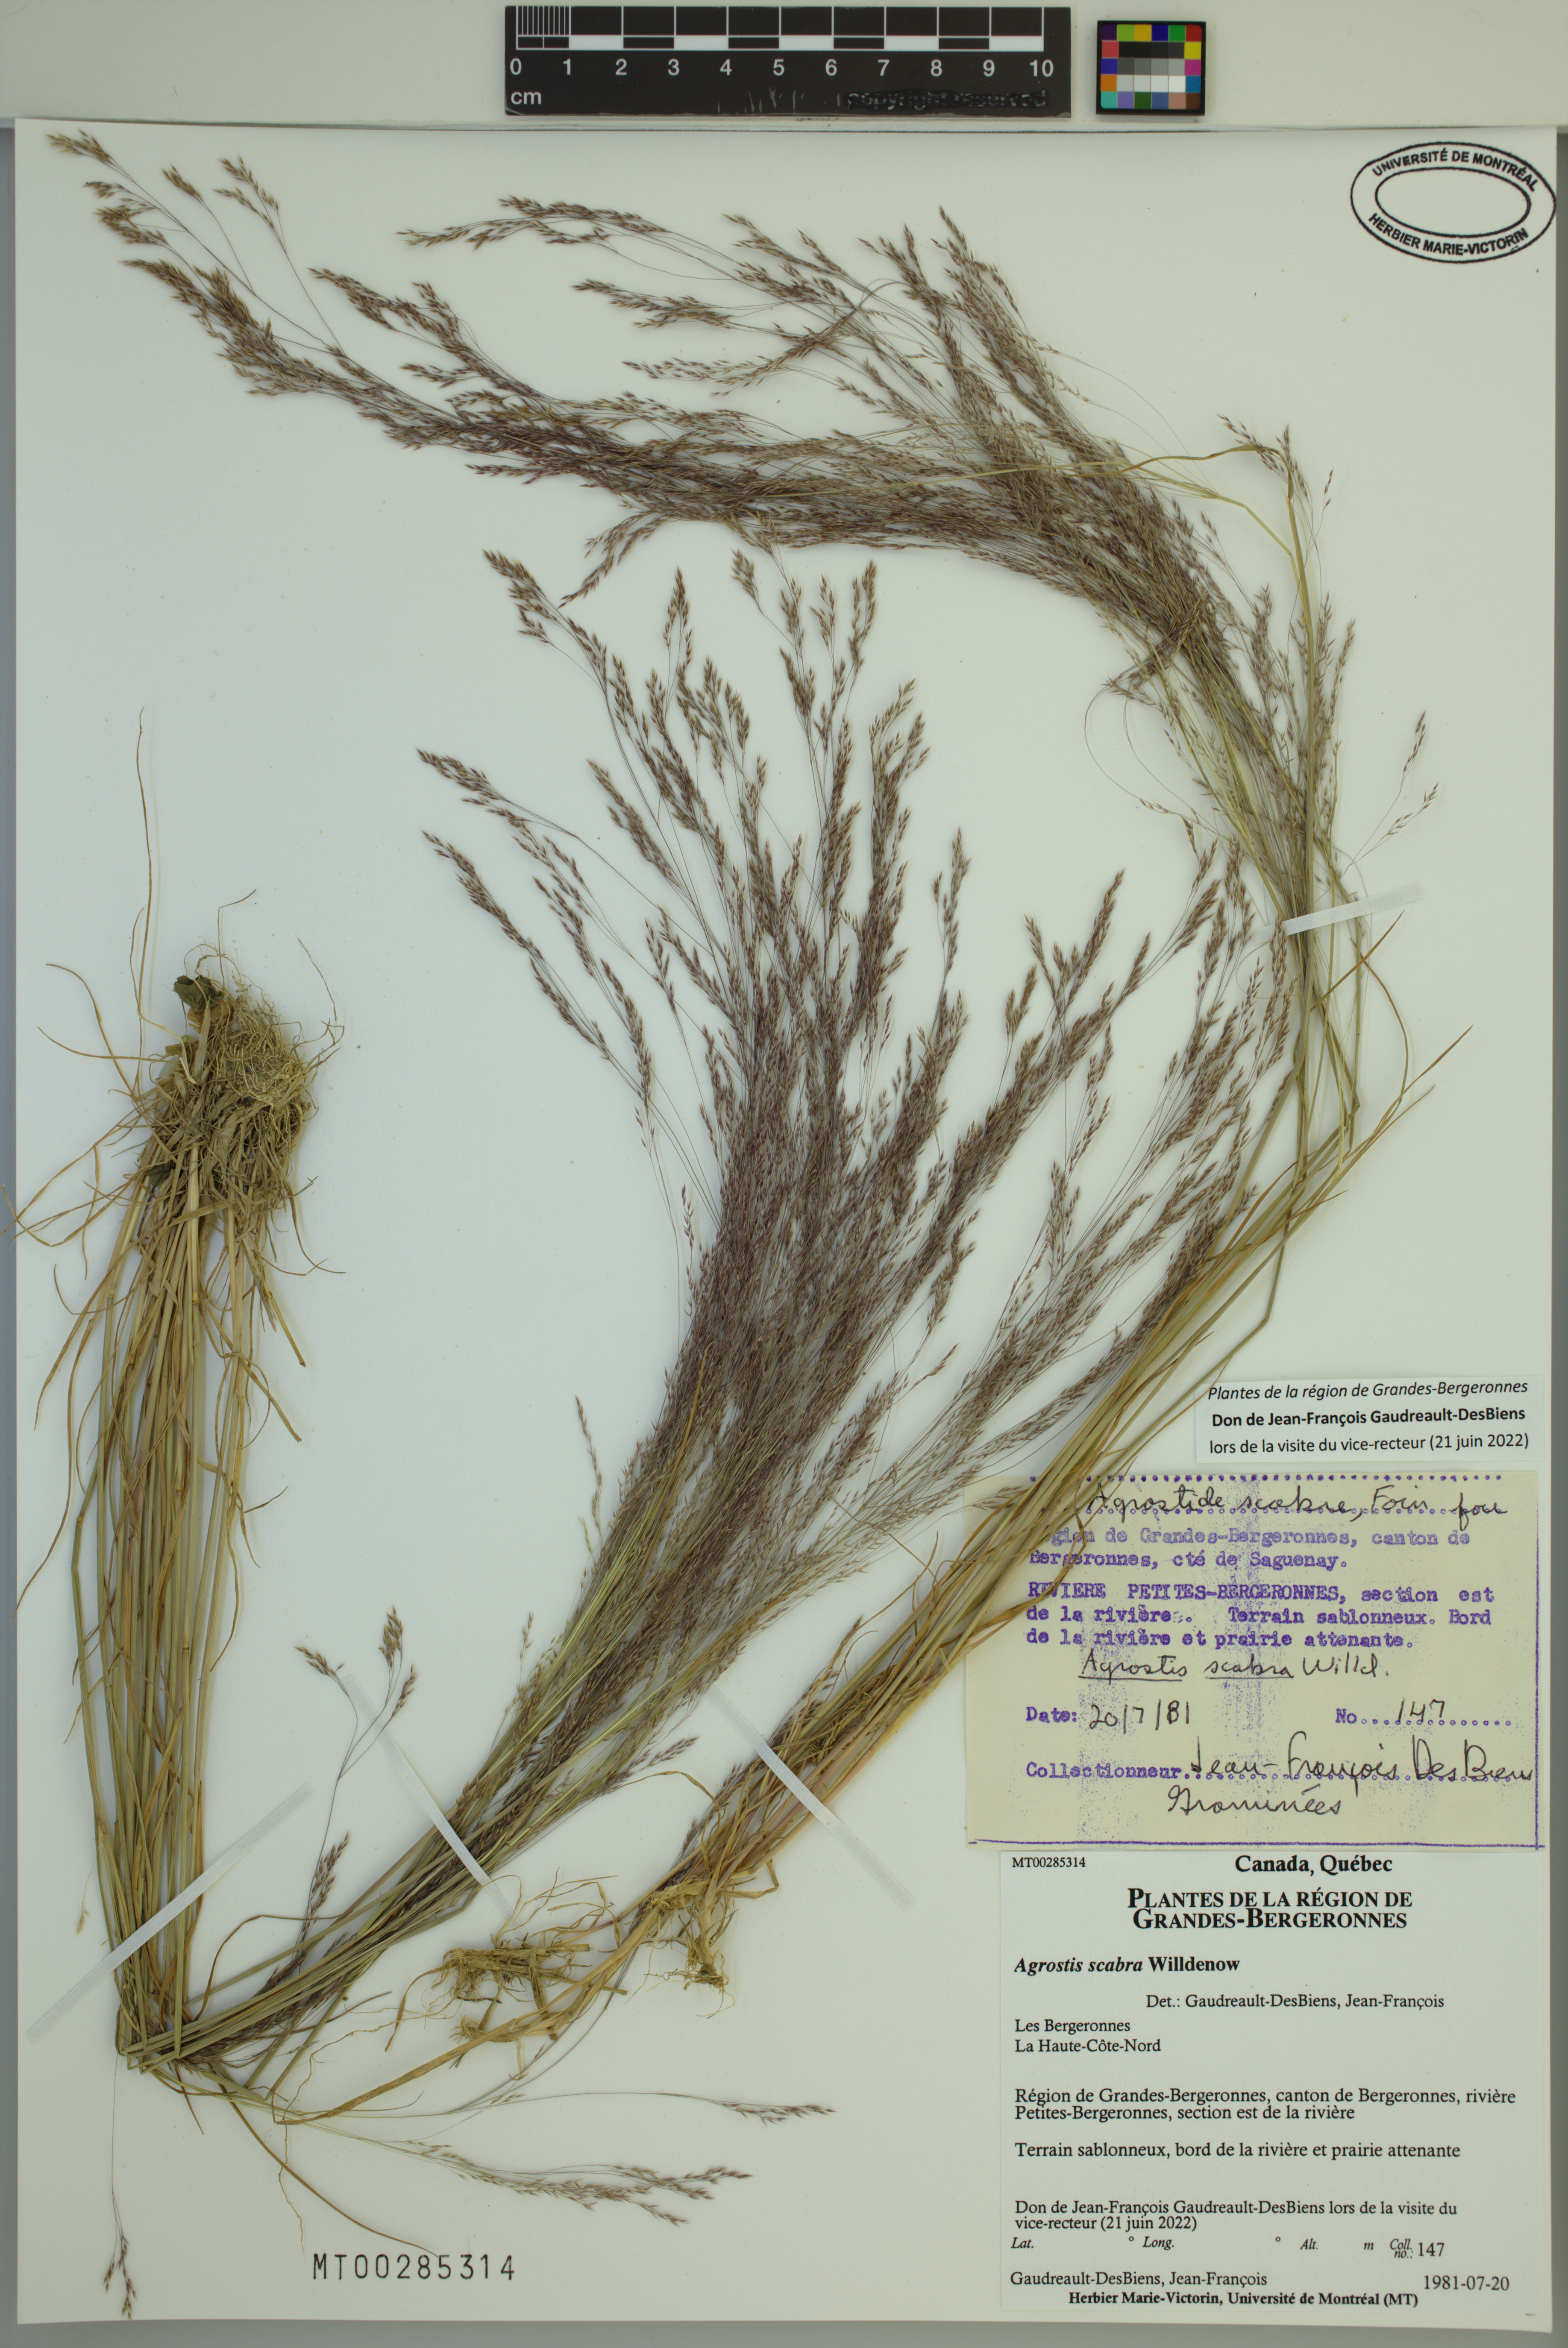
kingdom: Plantae
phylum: Tracheophyta
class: Liliopsida
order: Poales
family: Poaceae
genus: Agrostis
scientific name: Agrostis scabra
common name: Rough bent
